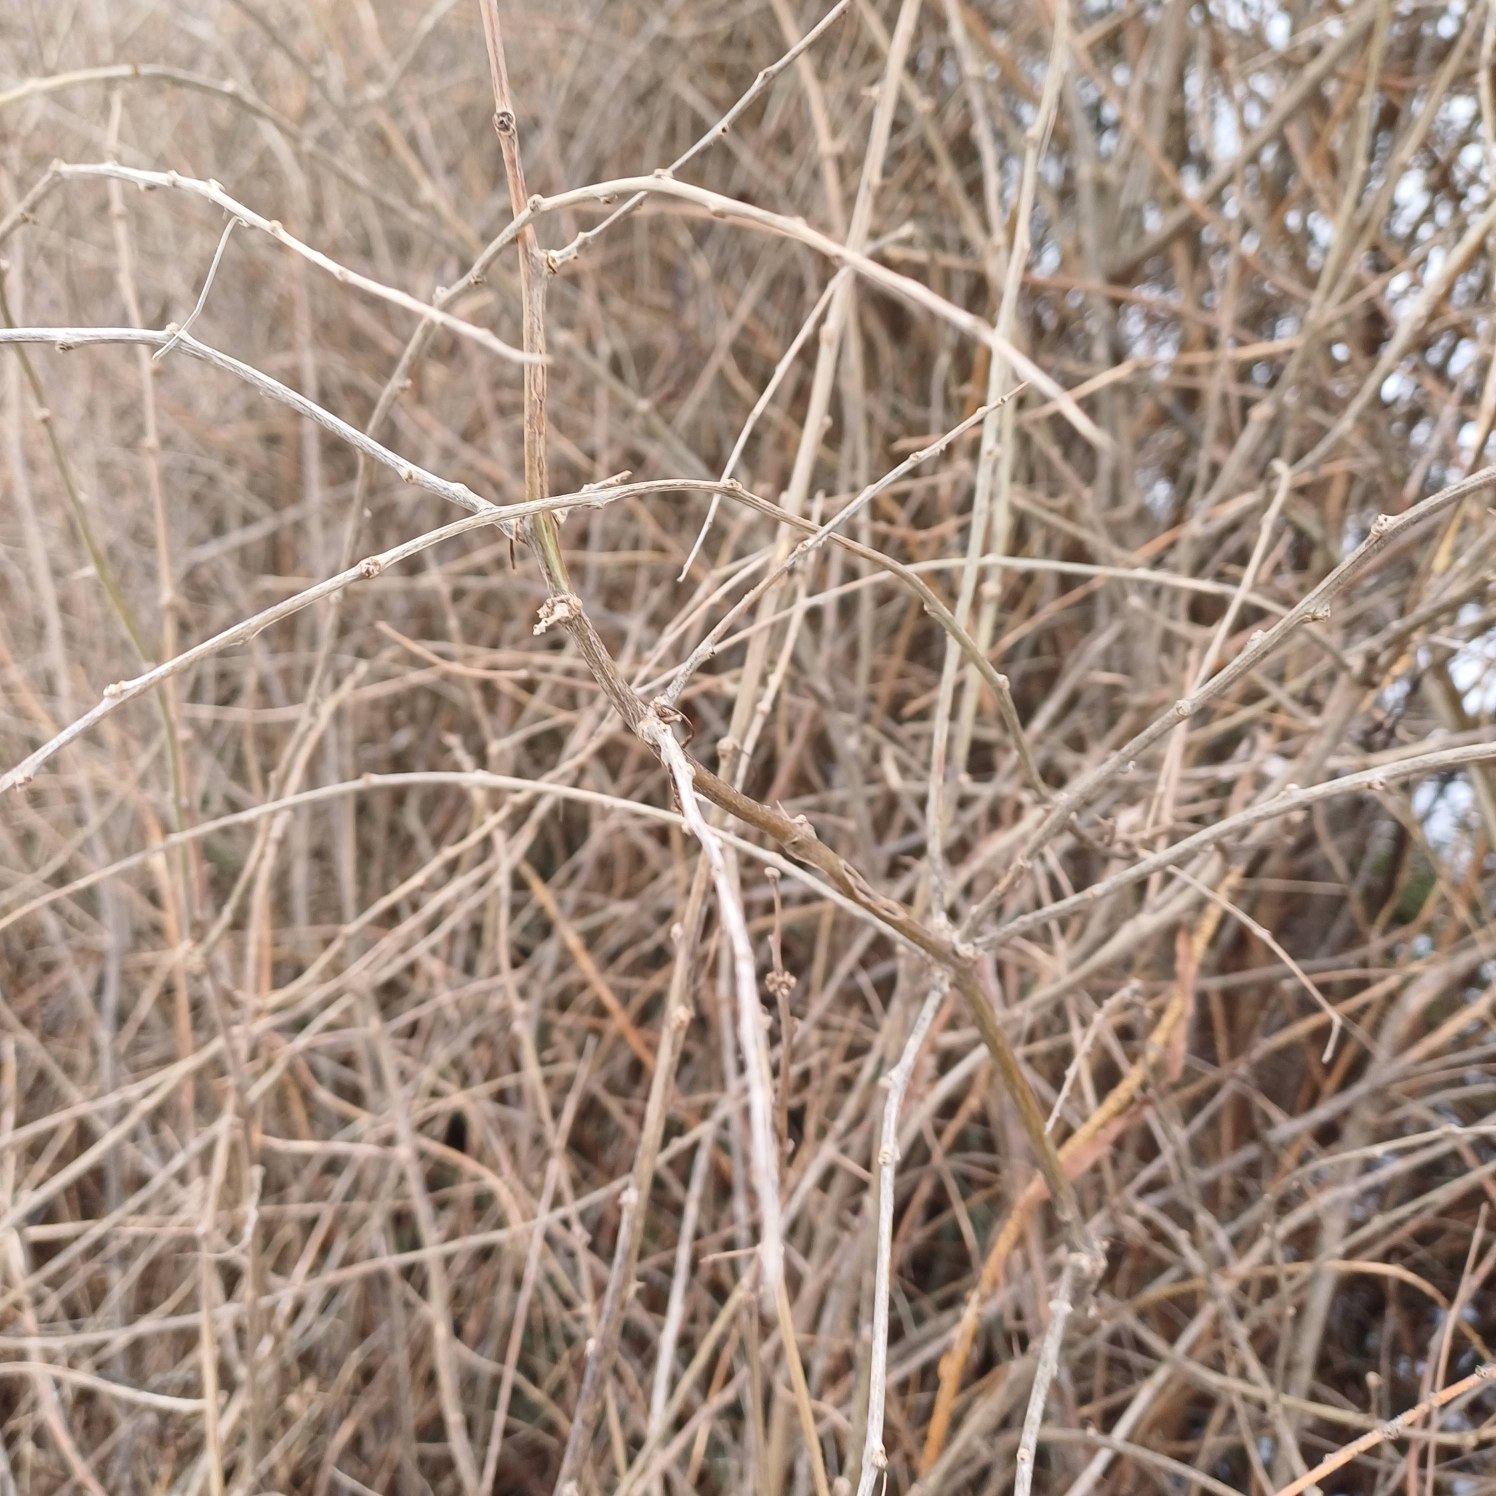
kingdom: Plantae
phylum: Tracheophyta
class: Magnoliopsida
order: Solanales
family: Solanaceae
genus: Lycium
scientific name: Lycium barbarum
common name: Bukketorn
